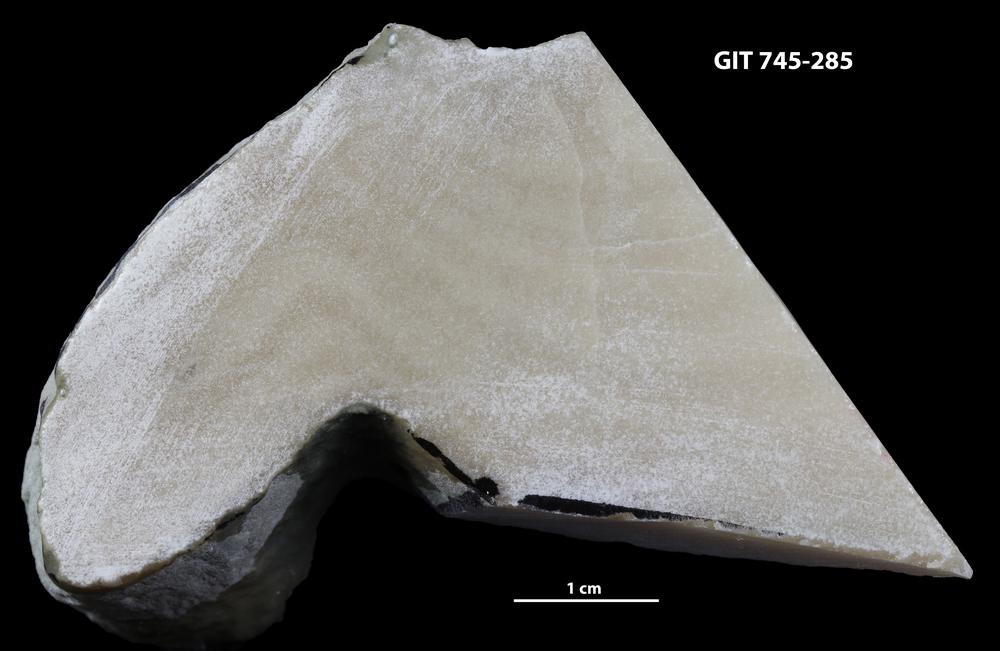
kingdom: Animalia
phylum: Porifera
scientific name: Porifera
